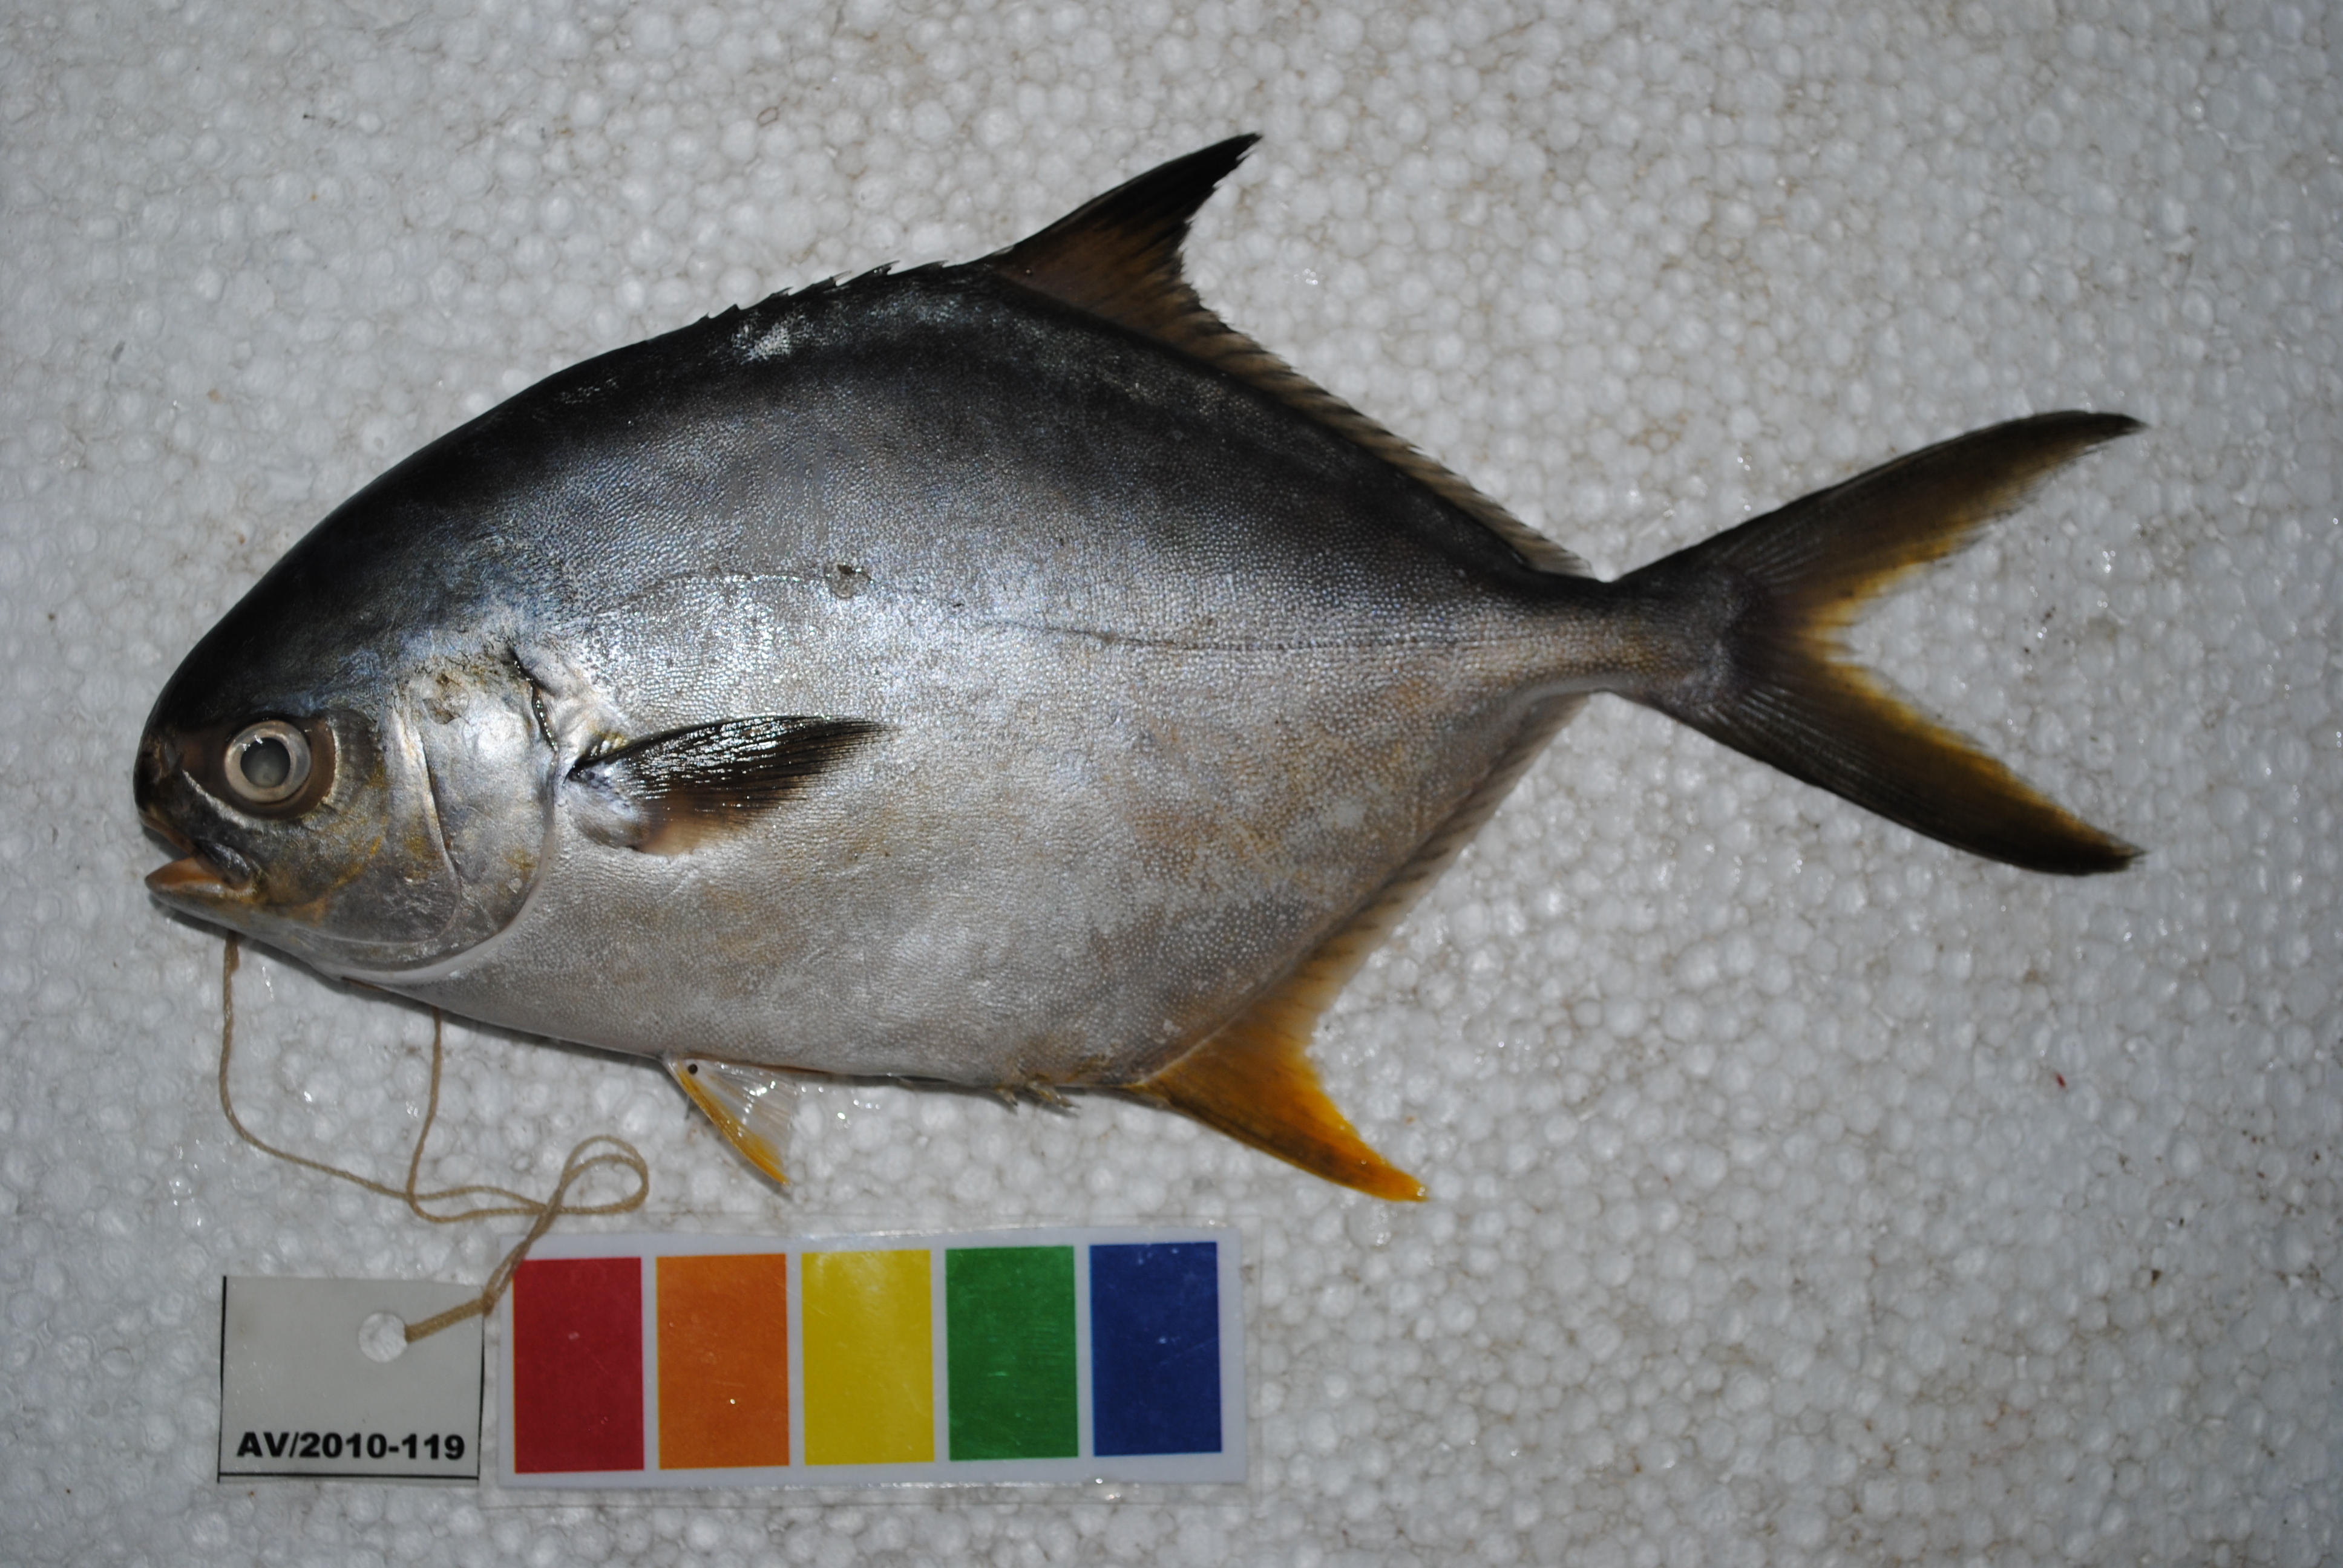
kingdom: Animalia
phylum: Chordata
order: Perciformes
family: Carangidae
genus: Trachinotus
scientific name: Trachinotus africanus
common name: Southern pompano
